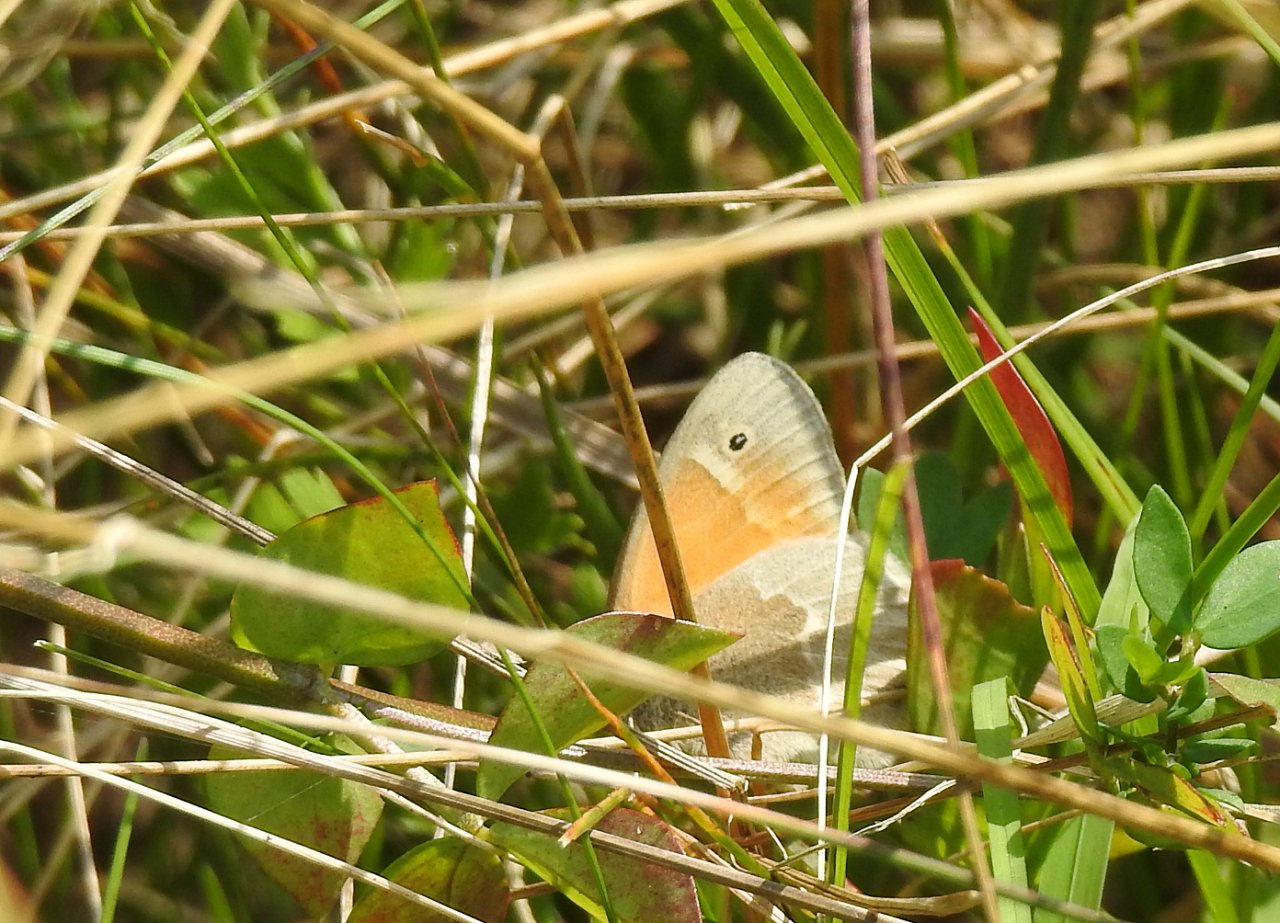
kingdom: Animalia
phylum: Arthropoda
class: Insecta
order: Lepidoptera
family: Nymphalidae
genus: Coenonympha
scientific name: Coenonympha tullia
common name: Large Heath
